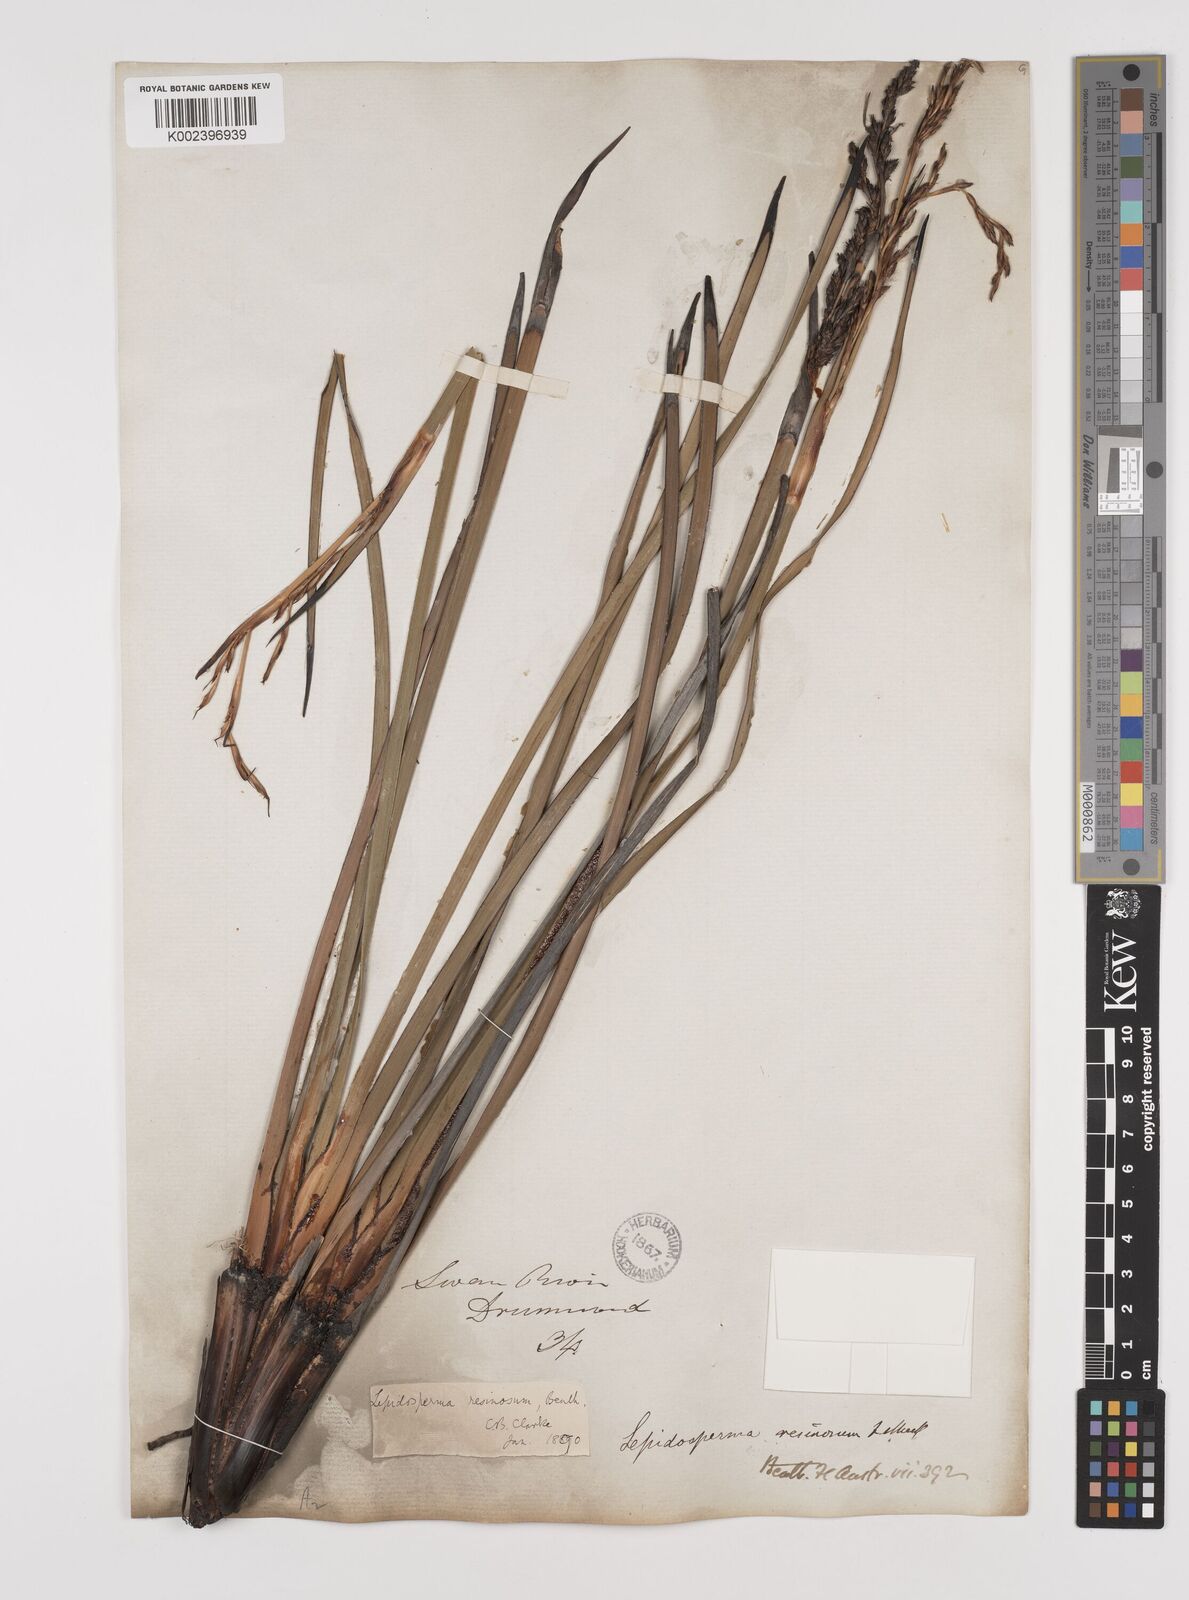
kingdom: Plantae
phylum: Tracheophyta
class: Liliopsida
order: Poales
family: Cyperaceae
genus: Lepidosperma
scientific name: Lepidosperma resinosum
